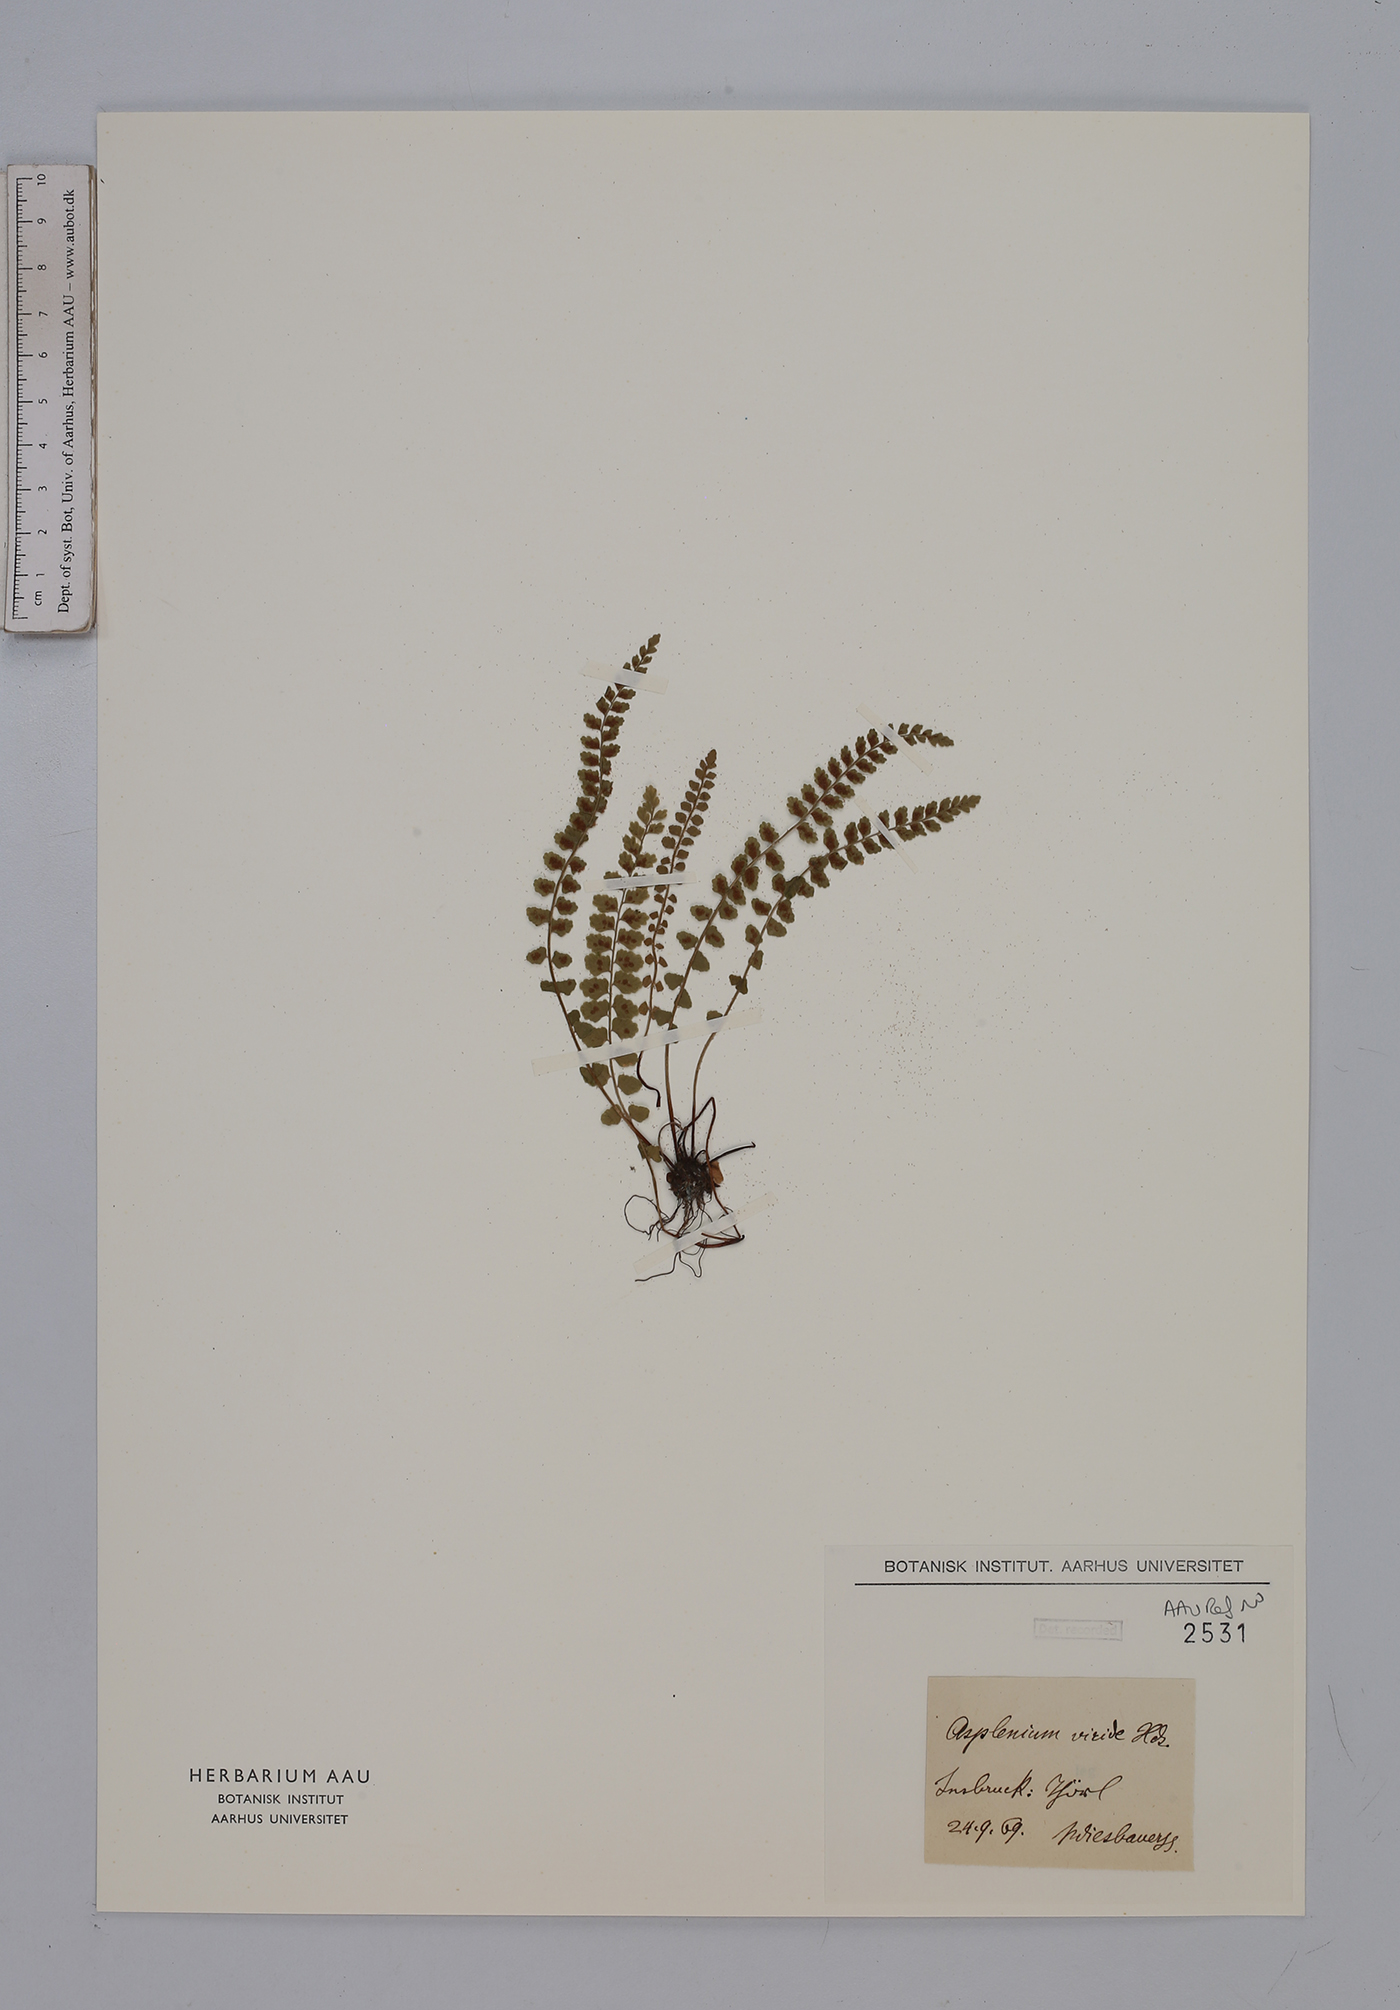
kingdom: Plantae
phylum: Tracheophyta
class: Polypodiopsida
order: Polypodiales
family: Aspleniaceae
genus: Asplenium
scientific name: Asplenium viride
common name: Green spleenwort
